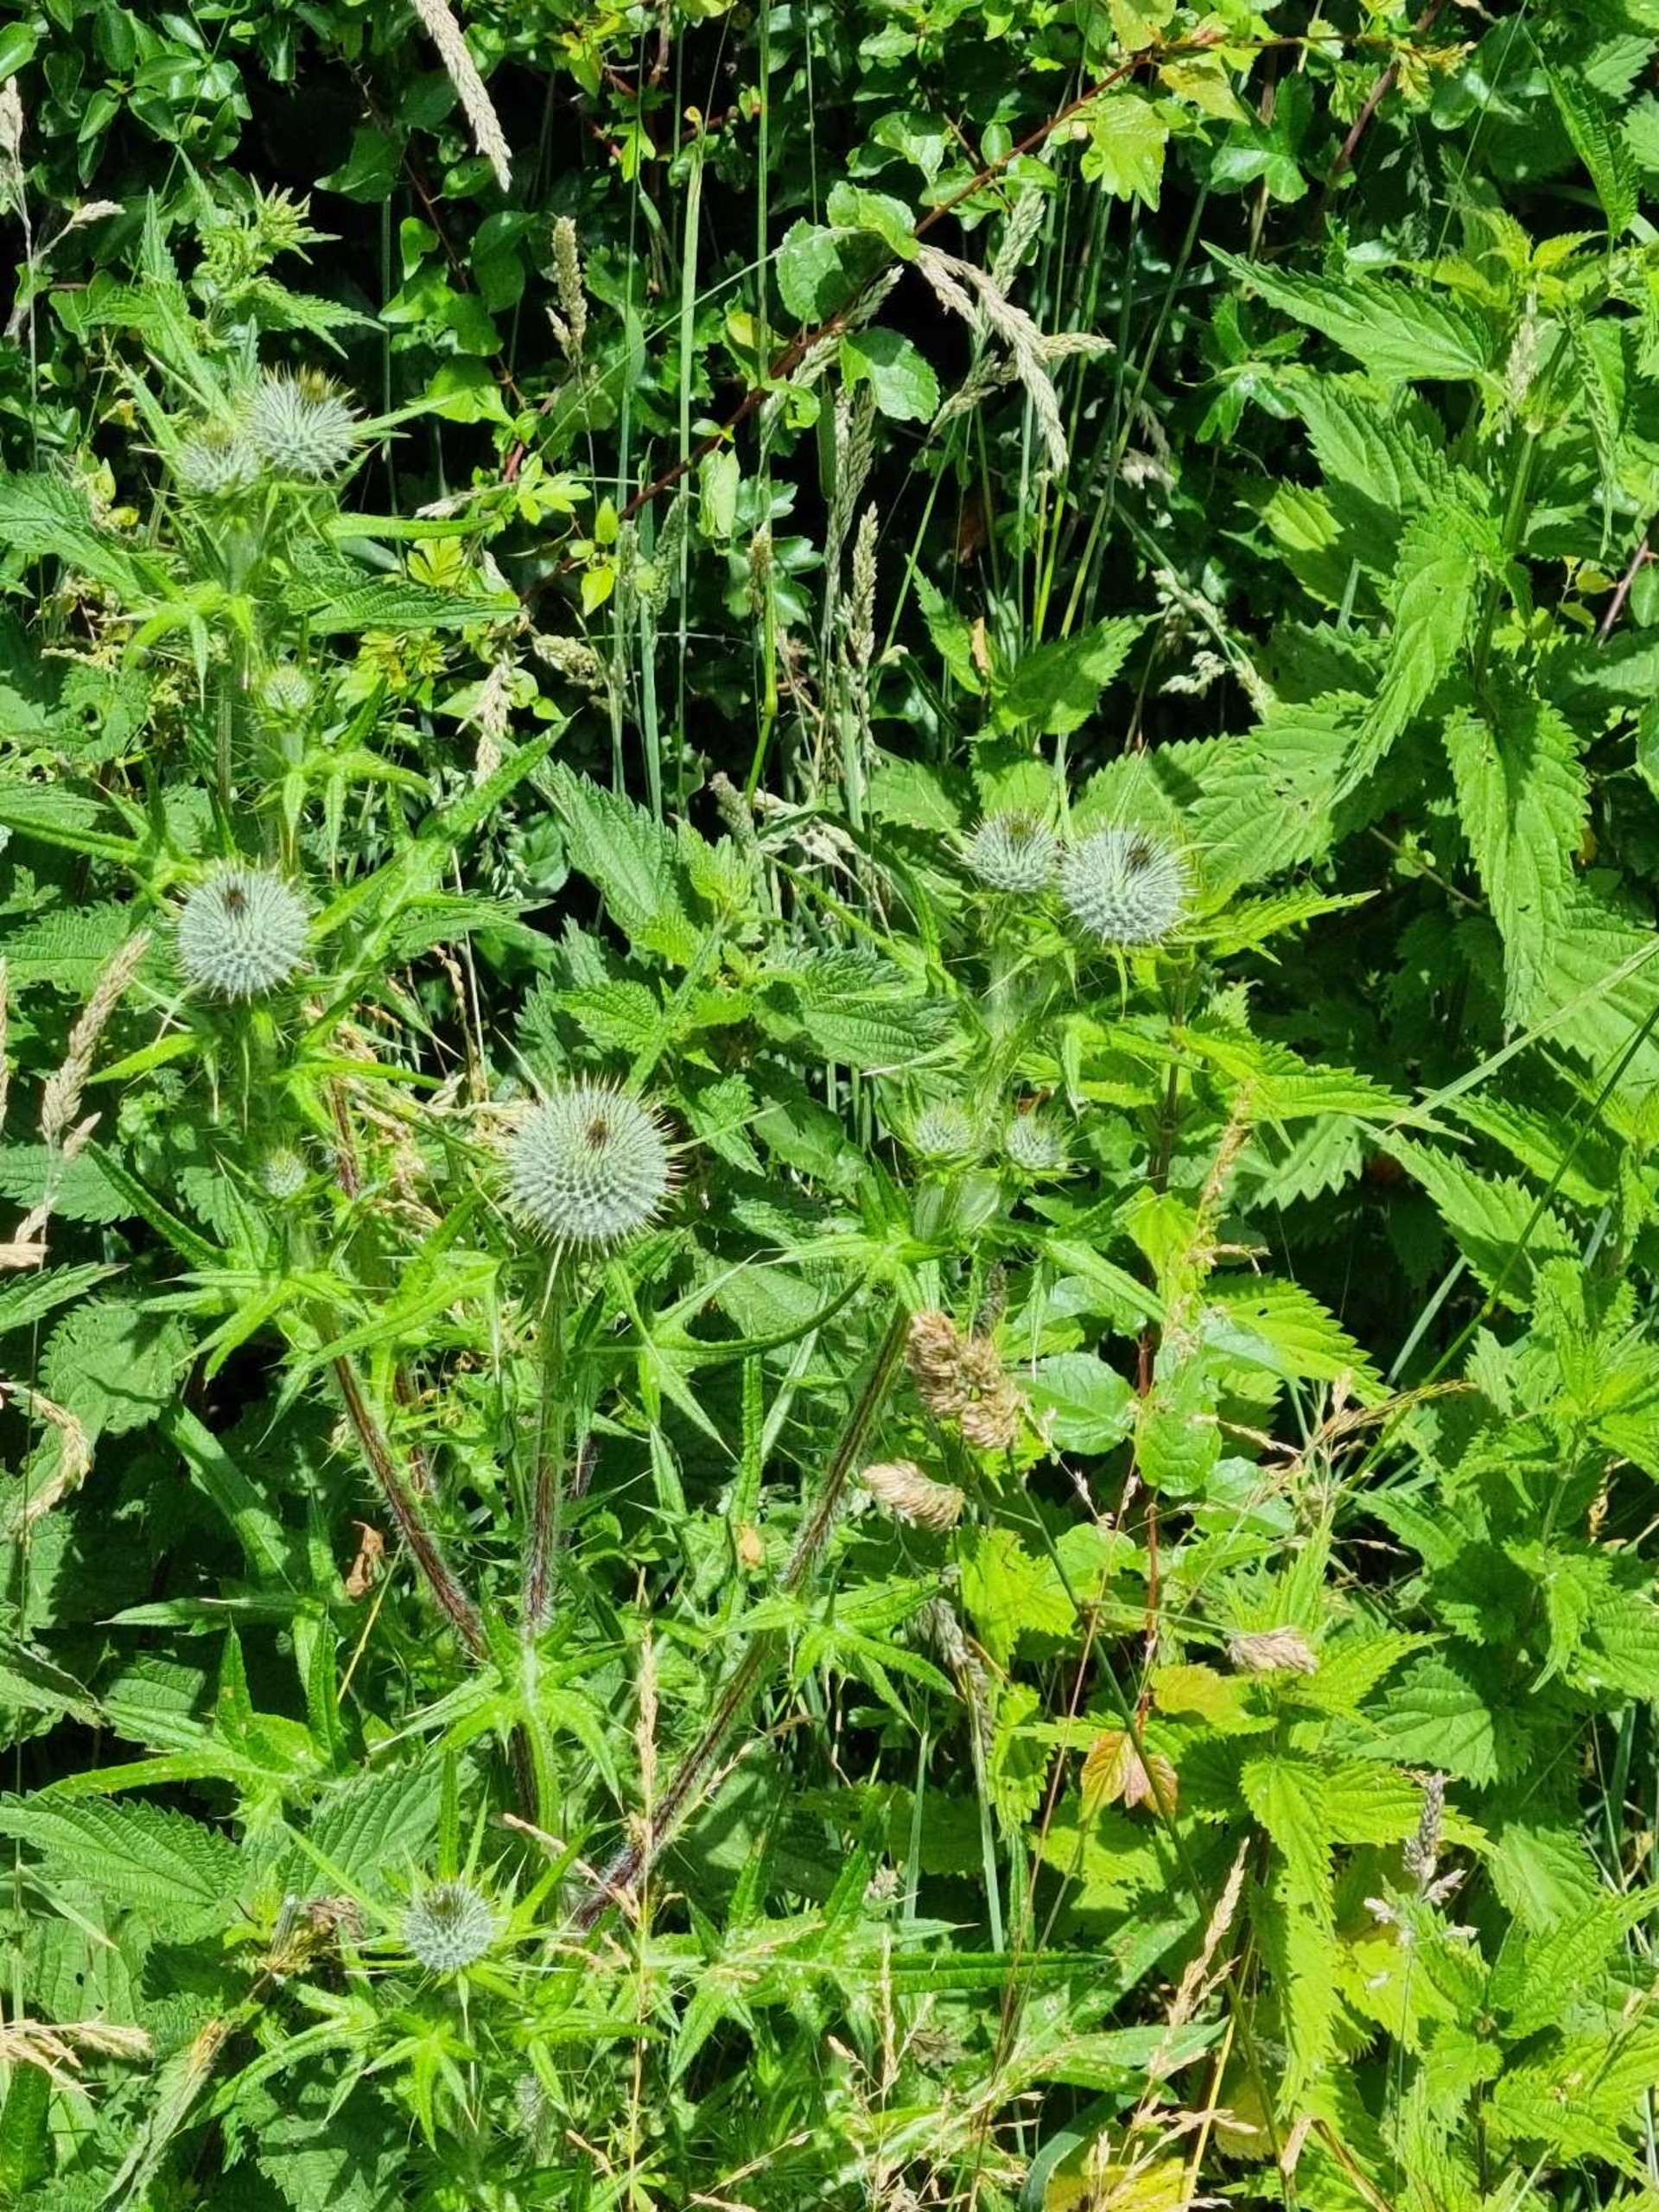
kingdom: Plantae
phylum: Tracheophyta
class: Magnoliopsida
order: Asterales
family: Asteraceae
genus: Cirsium
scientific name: Cirsium vulgare
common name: Horse-tidsel
